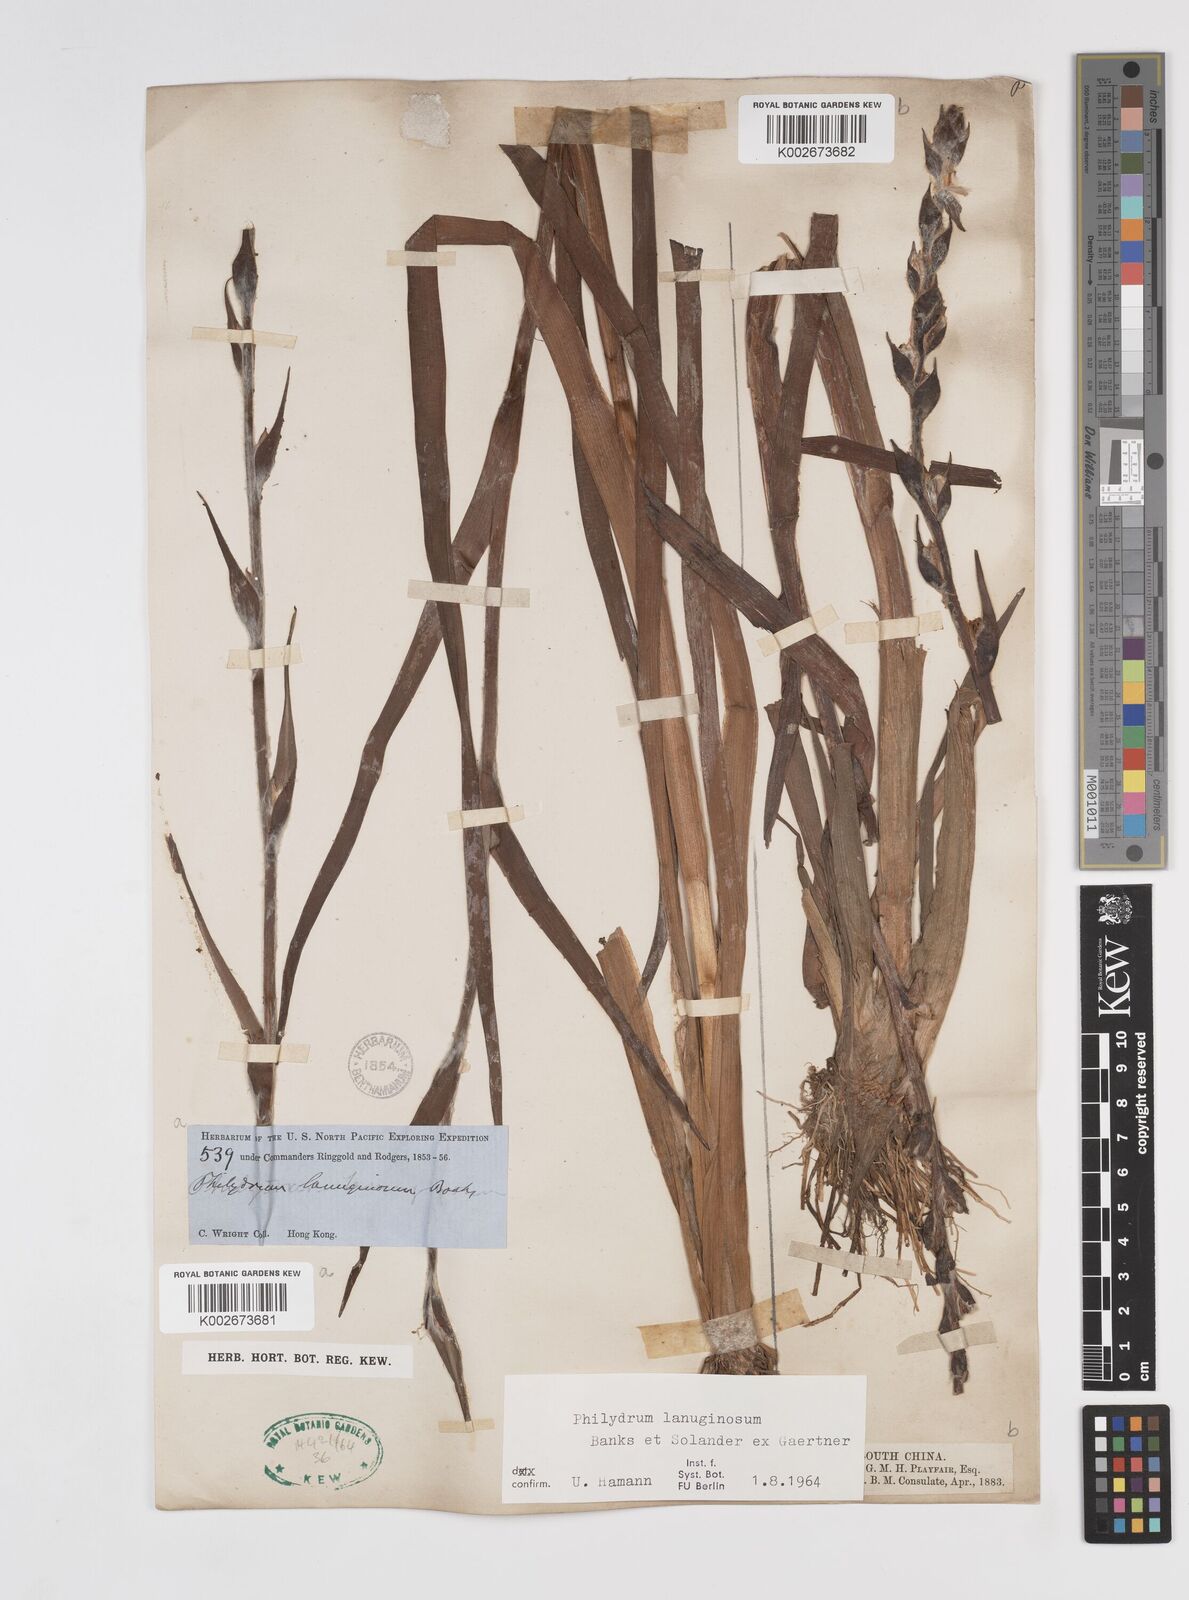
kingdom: Plantae
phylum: Tracheophyta
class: Liliopsida
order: Commelinales
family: Philydraceae
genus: Philydrum
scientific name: Philydrum lanuginosum
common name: Woolly frog's mouth
